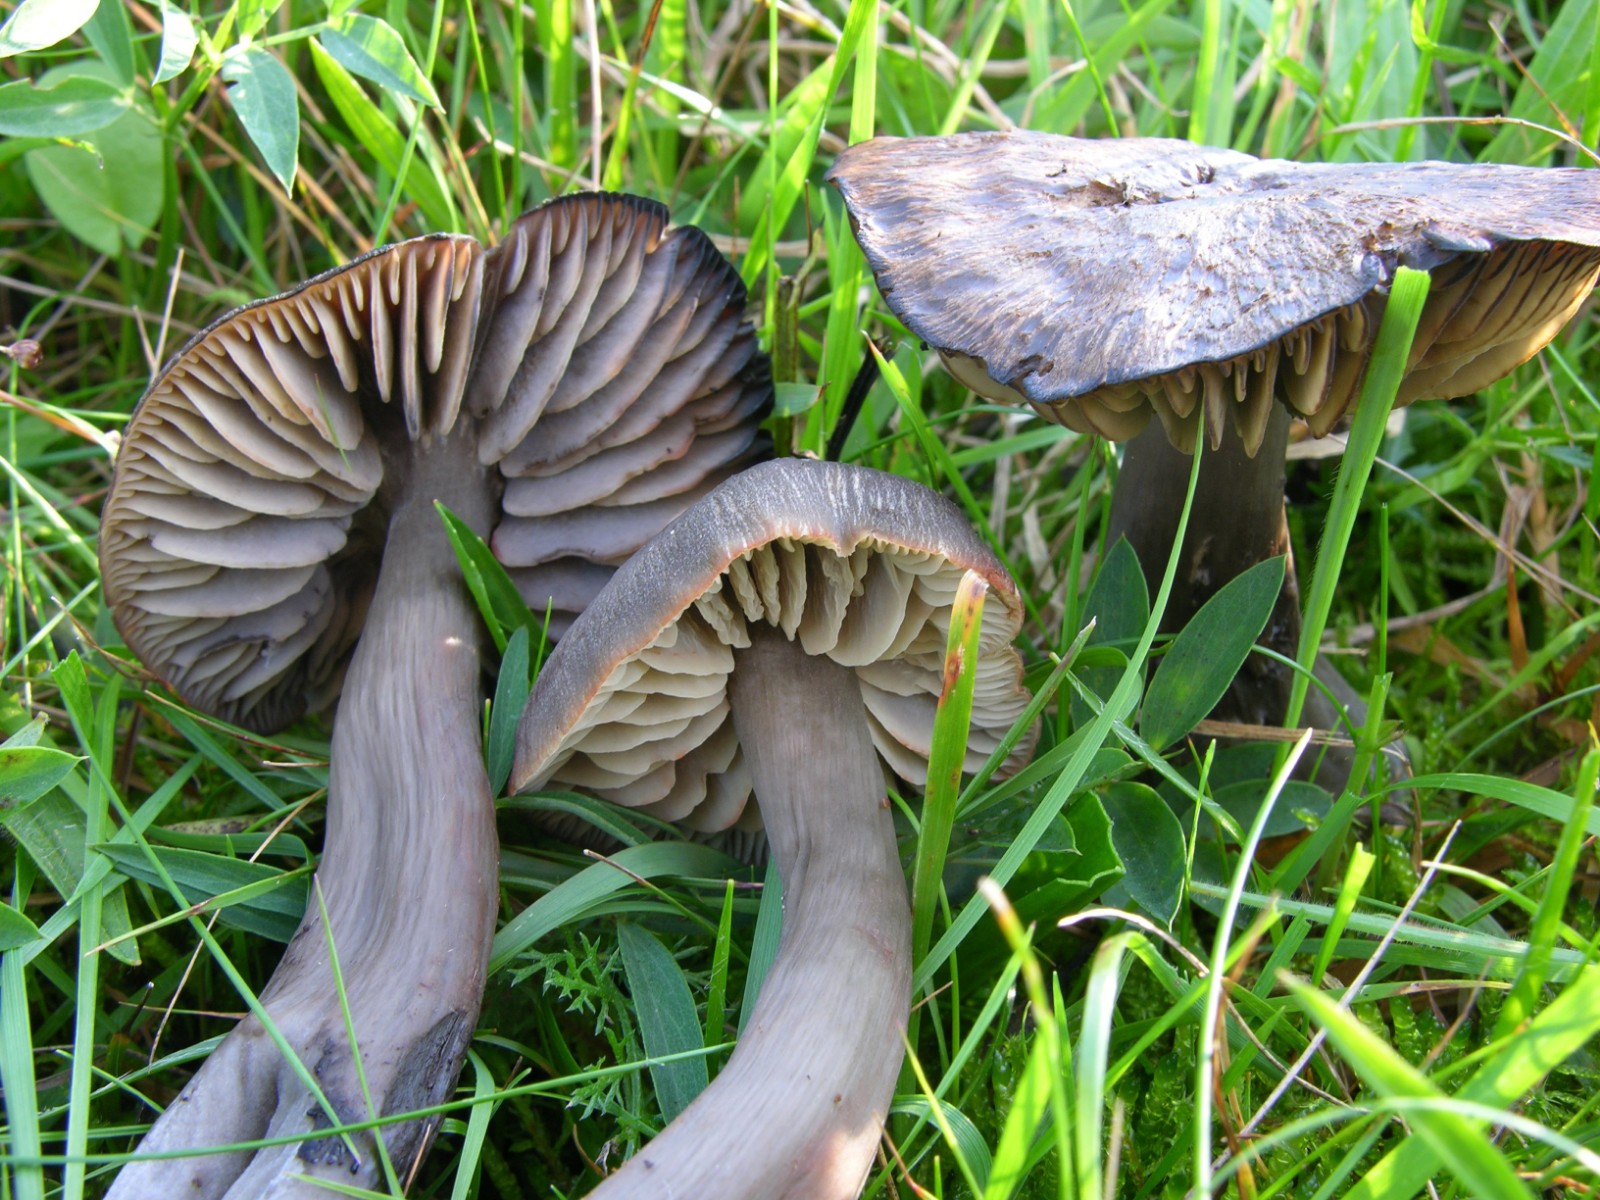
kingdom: Fungi
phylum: Basidiomycota
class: Agaricomycetes
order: Agaricales
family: Hygrophoraceae
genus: Neohygrocybe
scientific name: Neohygrocybe ovina
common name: rødmende vokshat
